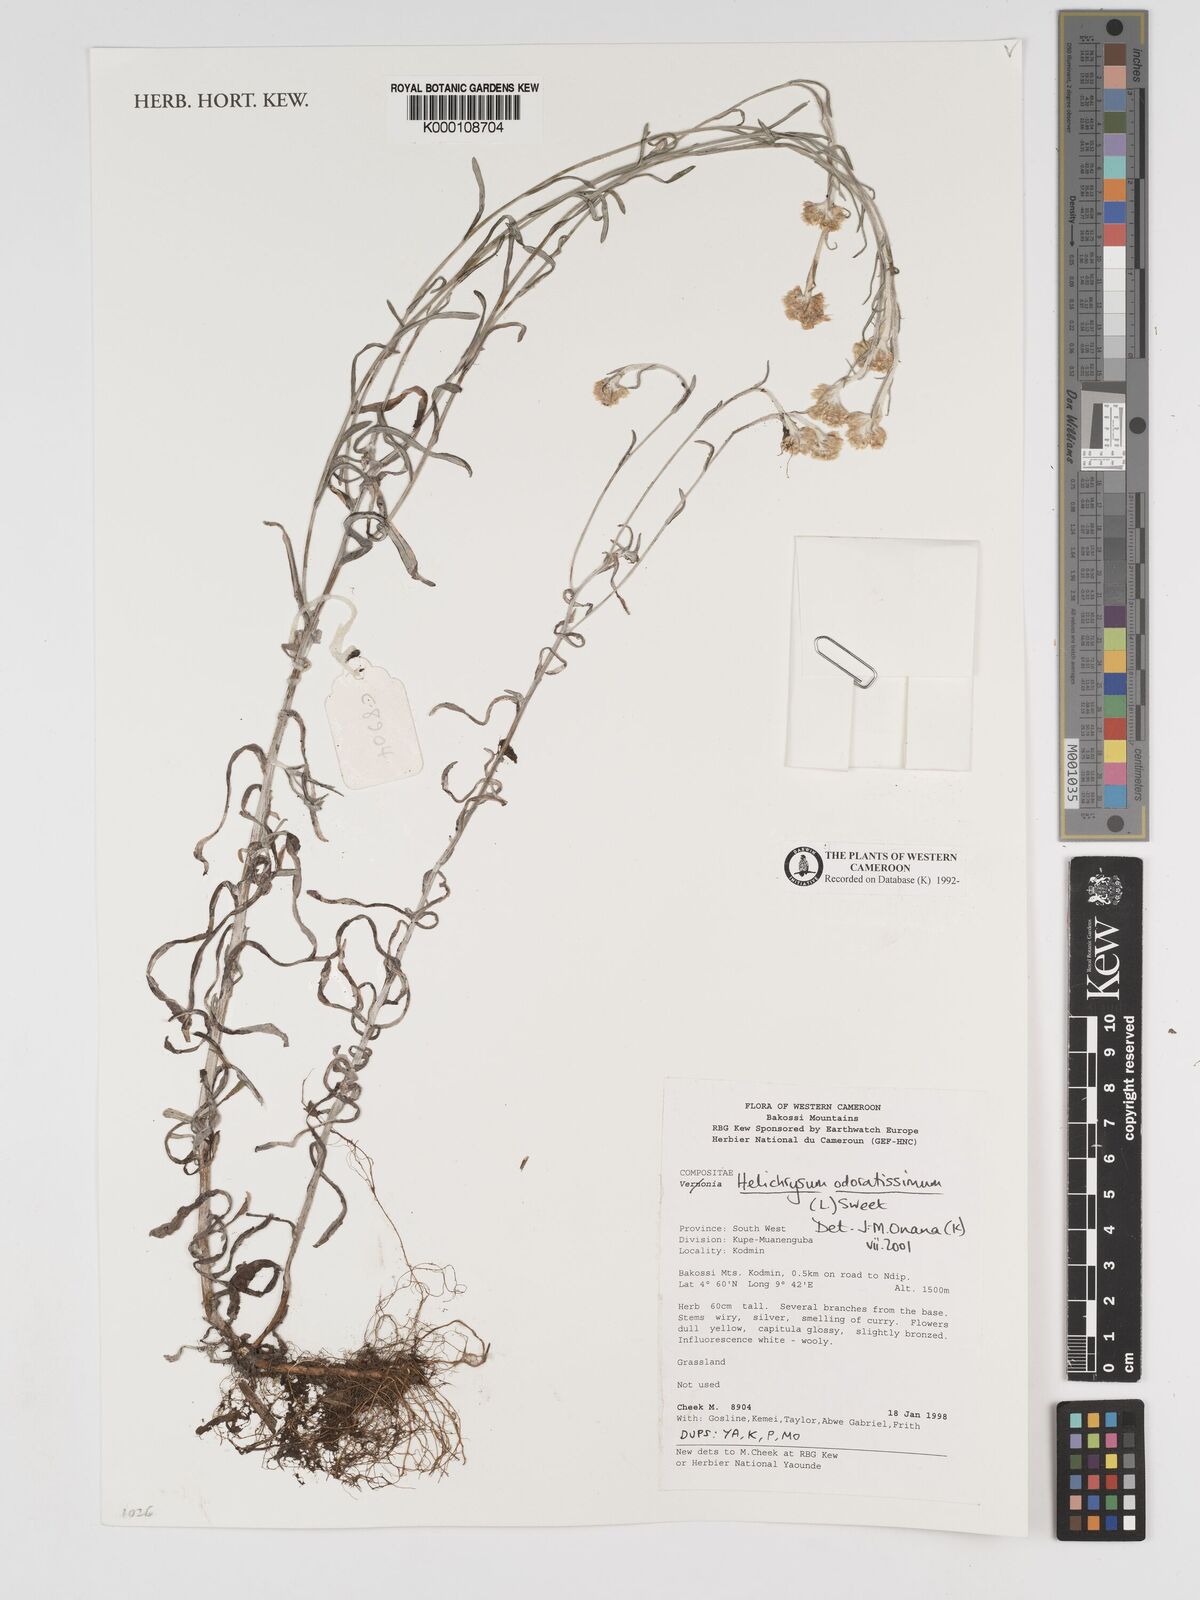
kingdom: Plantae
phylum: Tracheophyta
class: Magnoliopsida
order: Asterales
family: Asteraceae
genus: Helichrysum
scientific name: Helichrysum odoratissimum
